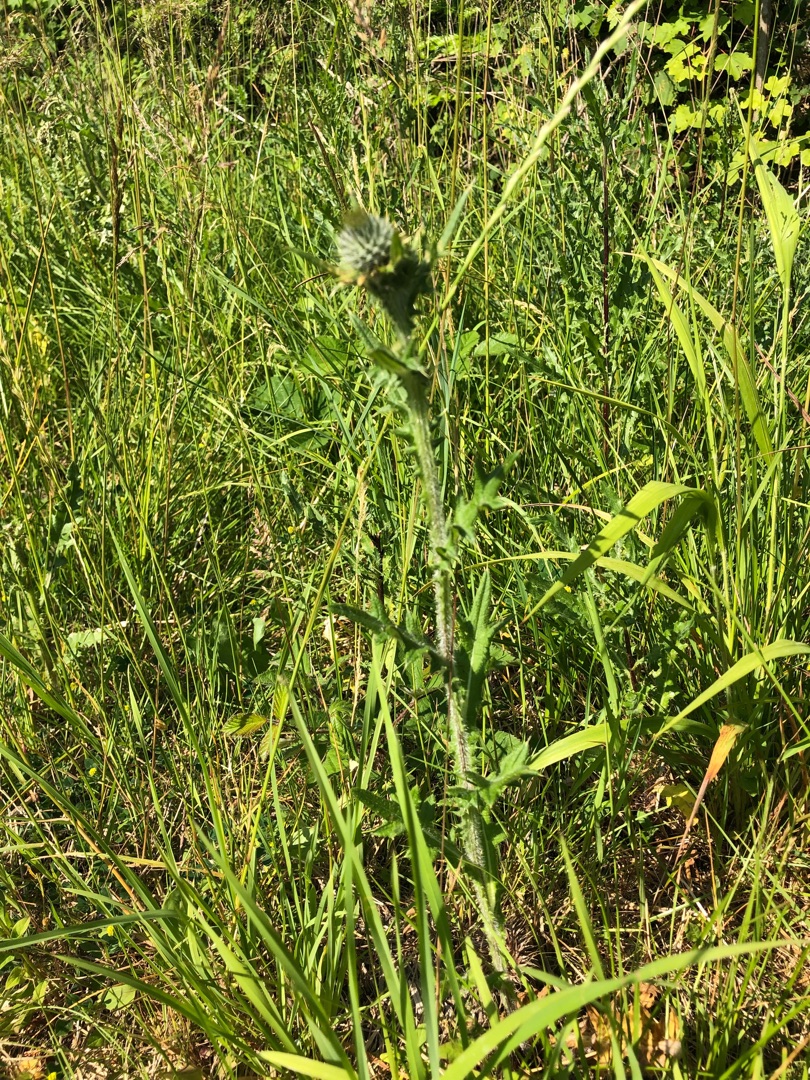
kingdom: Plantae
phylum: Tracheophyta
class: Magnoliopsida
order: Asterales
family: Asteraceae
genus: Cirsium
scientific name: Cirsium vulgare
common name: Horse-tidsel
